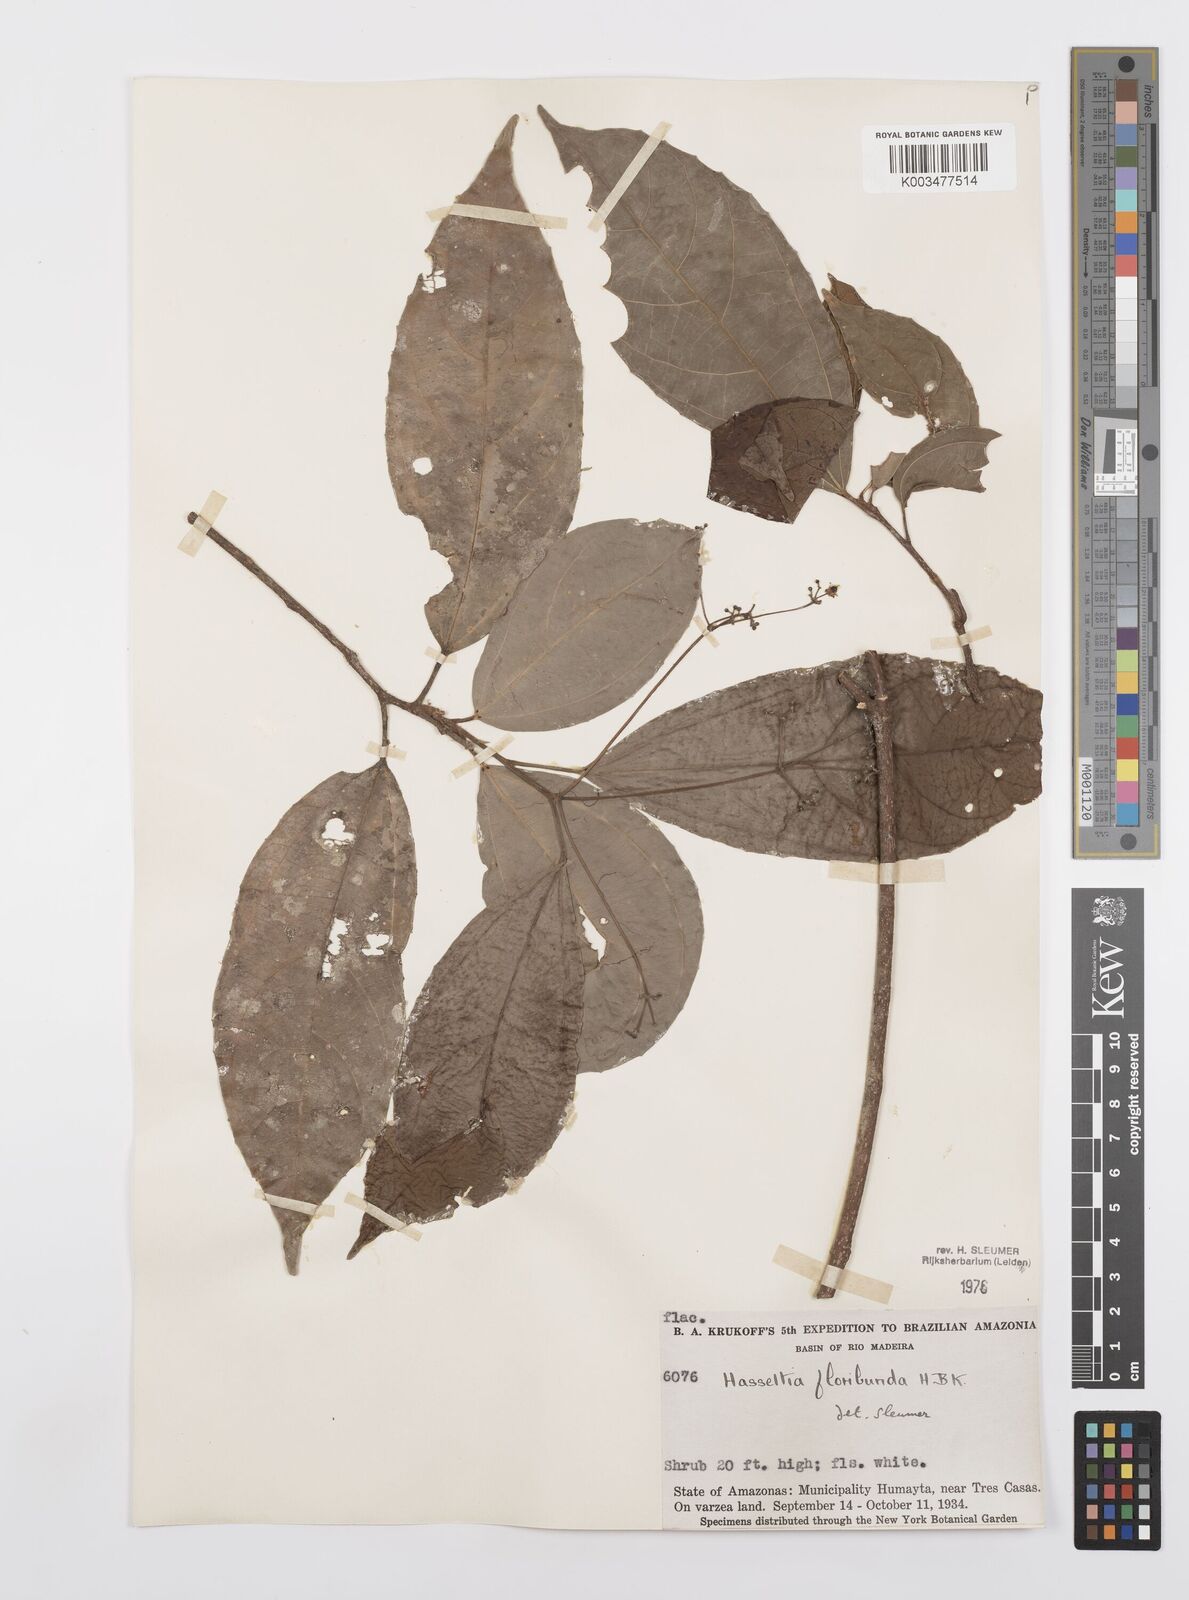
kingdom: Plantae
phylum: Tracheophyta
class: Magnoliopsida
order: Malpighiales
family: Salicaceae
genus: Hasseltia
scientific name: Hasseltia floribunda
